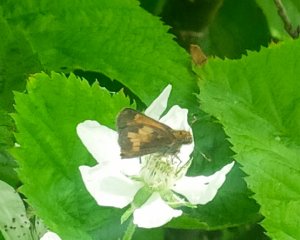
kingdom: Animalia
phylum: Arthropoda
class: Insecta
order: Lepidoptera
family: Hesperiidae
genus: Lon
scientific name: Lon hobomok
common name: Hobomok Skipper
